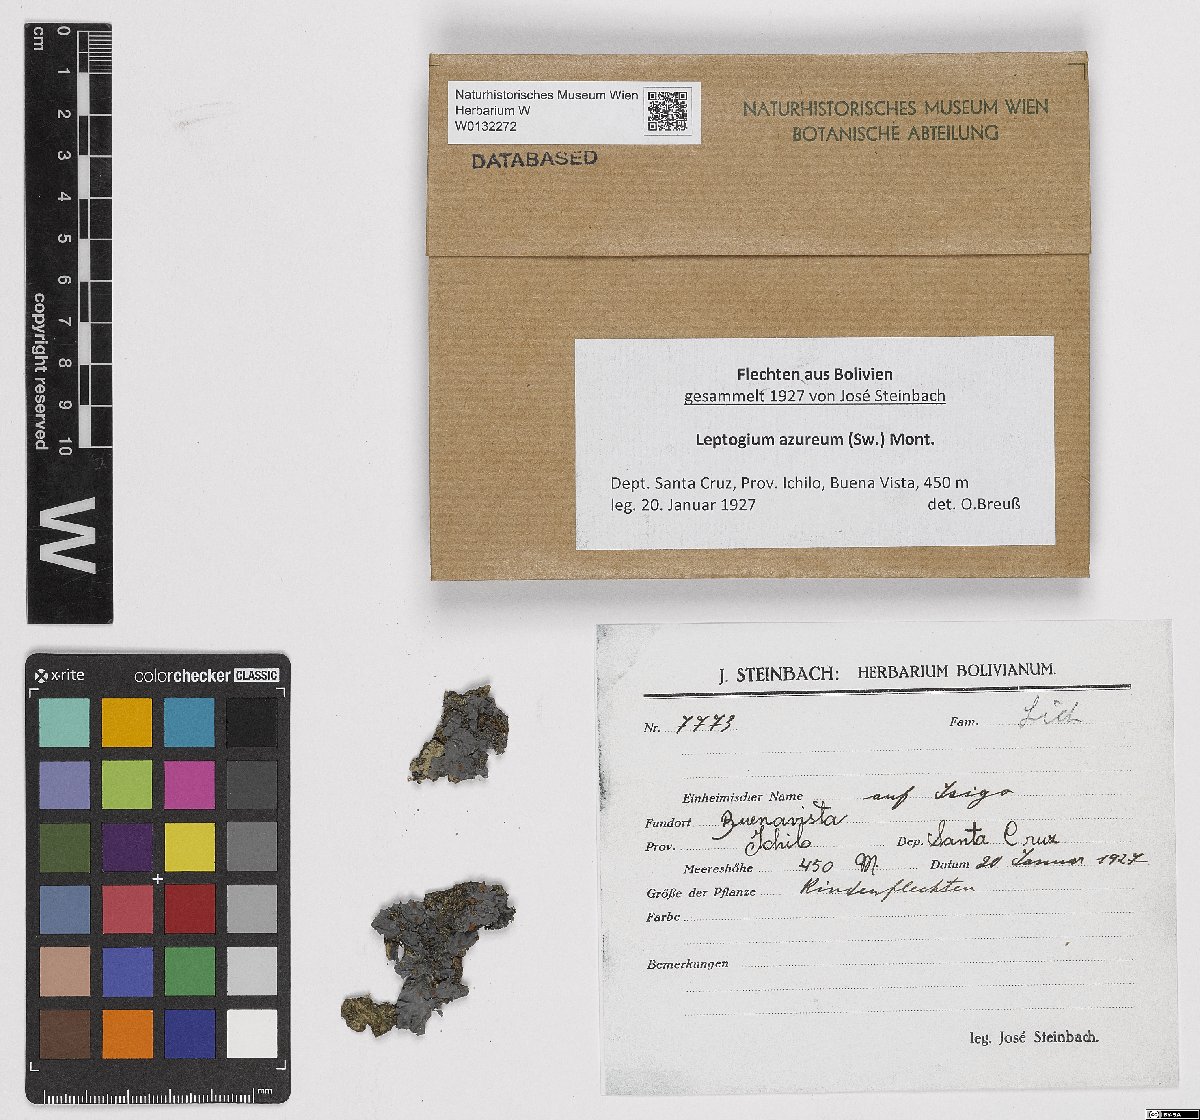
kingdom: Fungi
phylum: Ascomycota
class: Lecanoromycetes
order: Peltigerales
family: Collemataceae
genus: Leptogium
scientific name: Leptogium azureum
